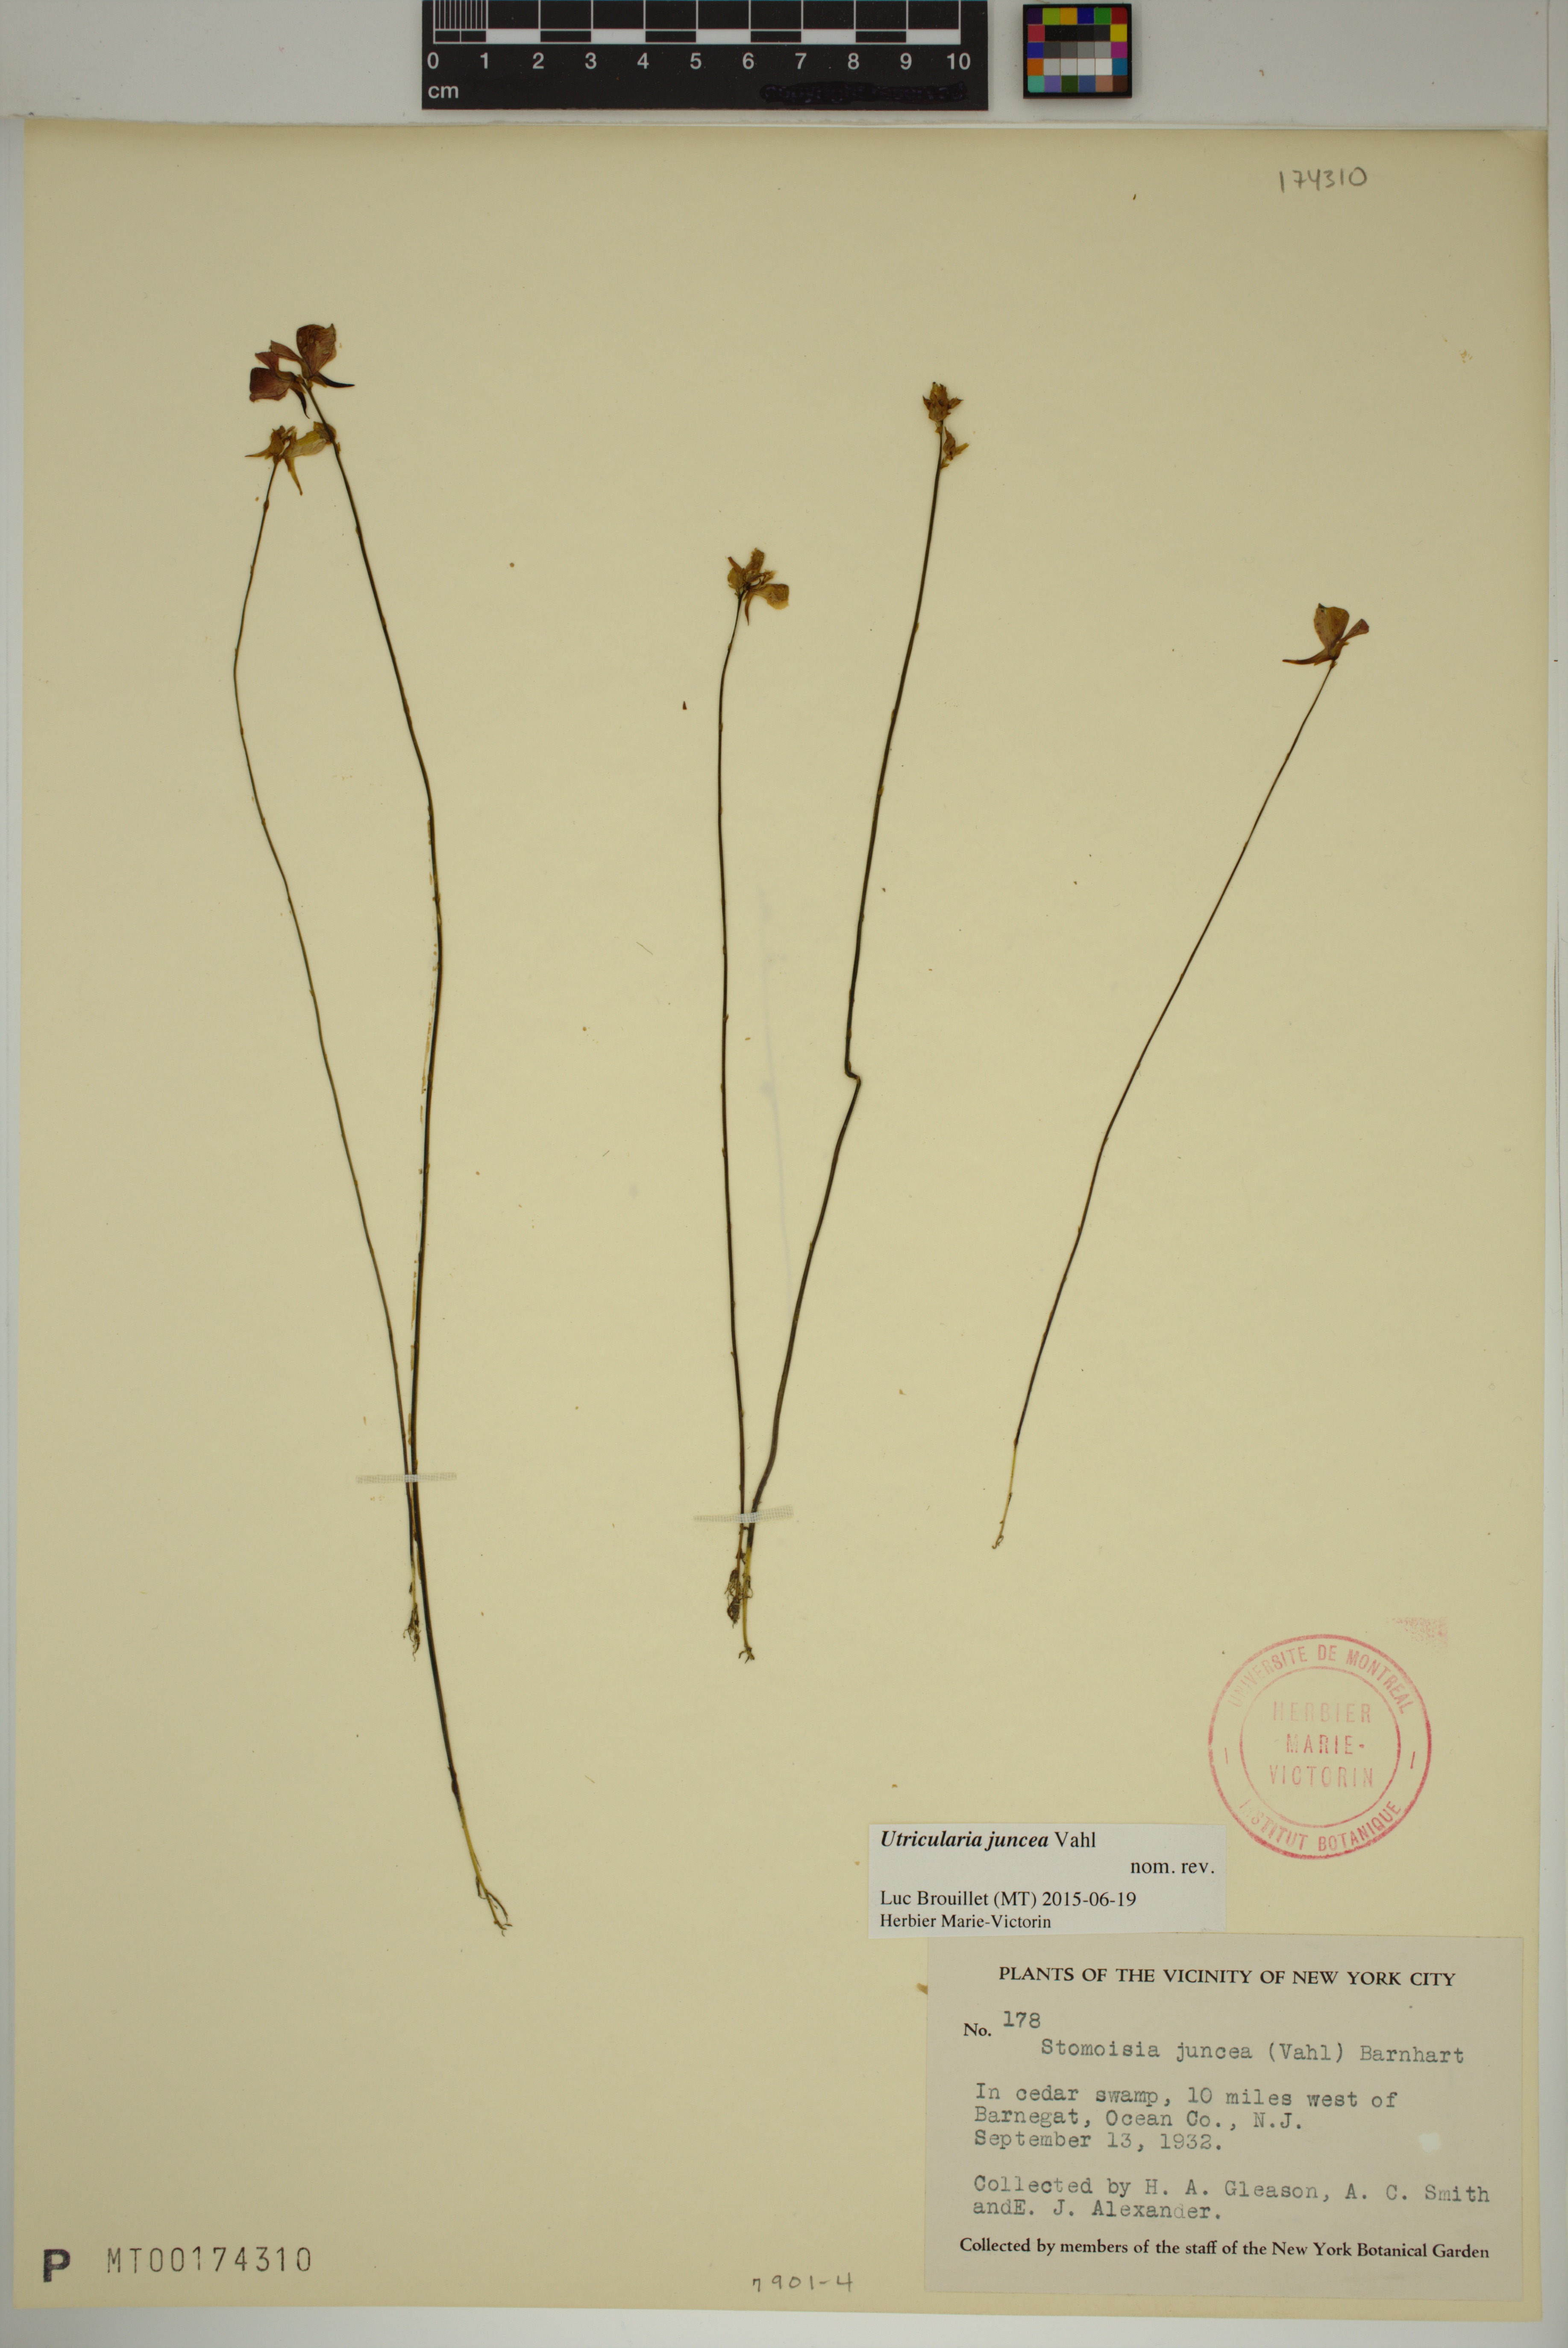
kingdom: Plantae
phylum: Tracheophyta
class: Magnoliopsida
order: Lamiales
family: Lentibulariaceae
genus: Utricularia
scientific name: Utricularia juncea
